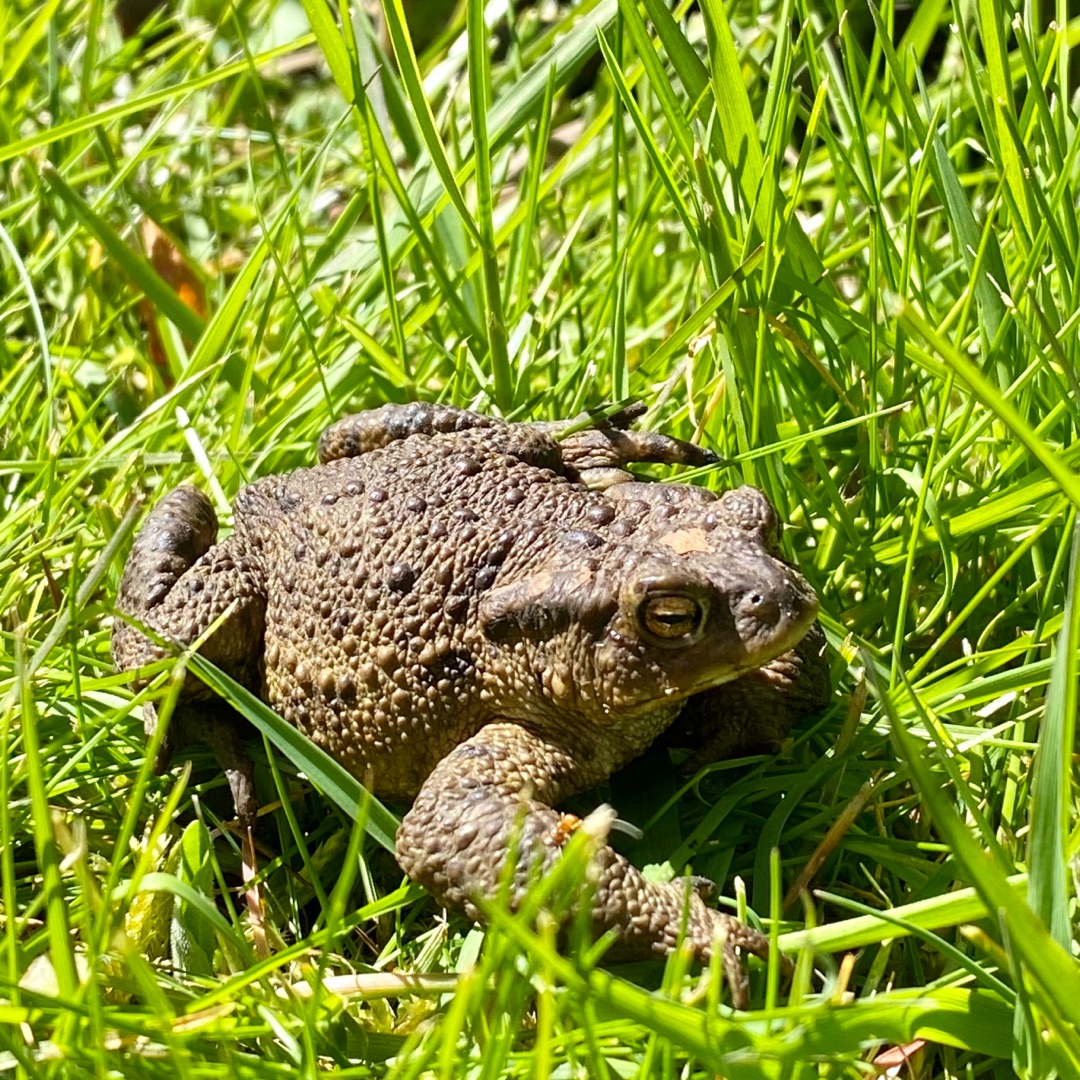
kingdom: Animalia
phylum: Chordata
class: Amphibia
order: Anura
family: Bufonidae
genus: Bufo
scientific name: Bufo bufo
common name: Skrubtudse
